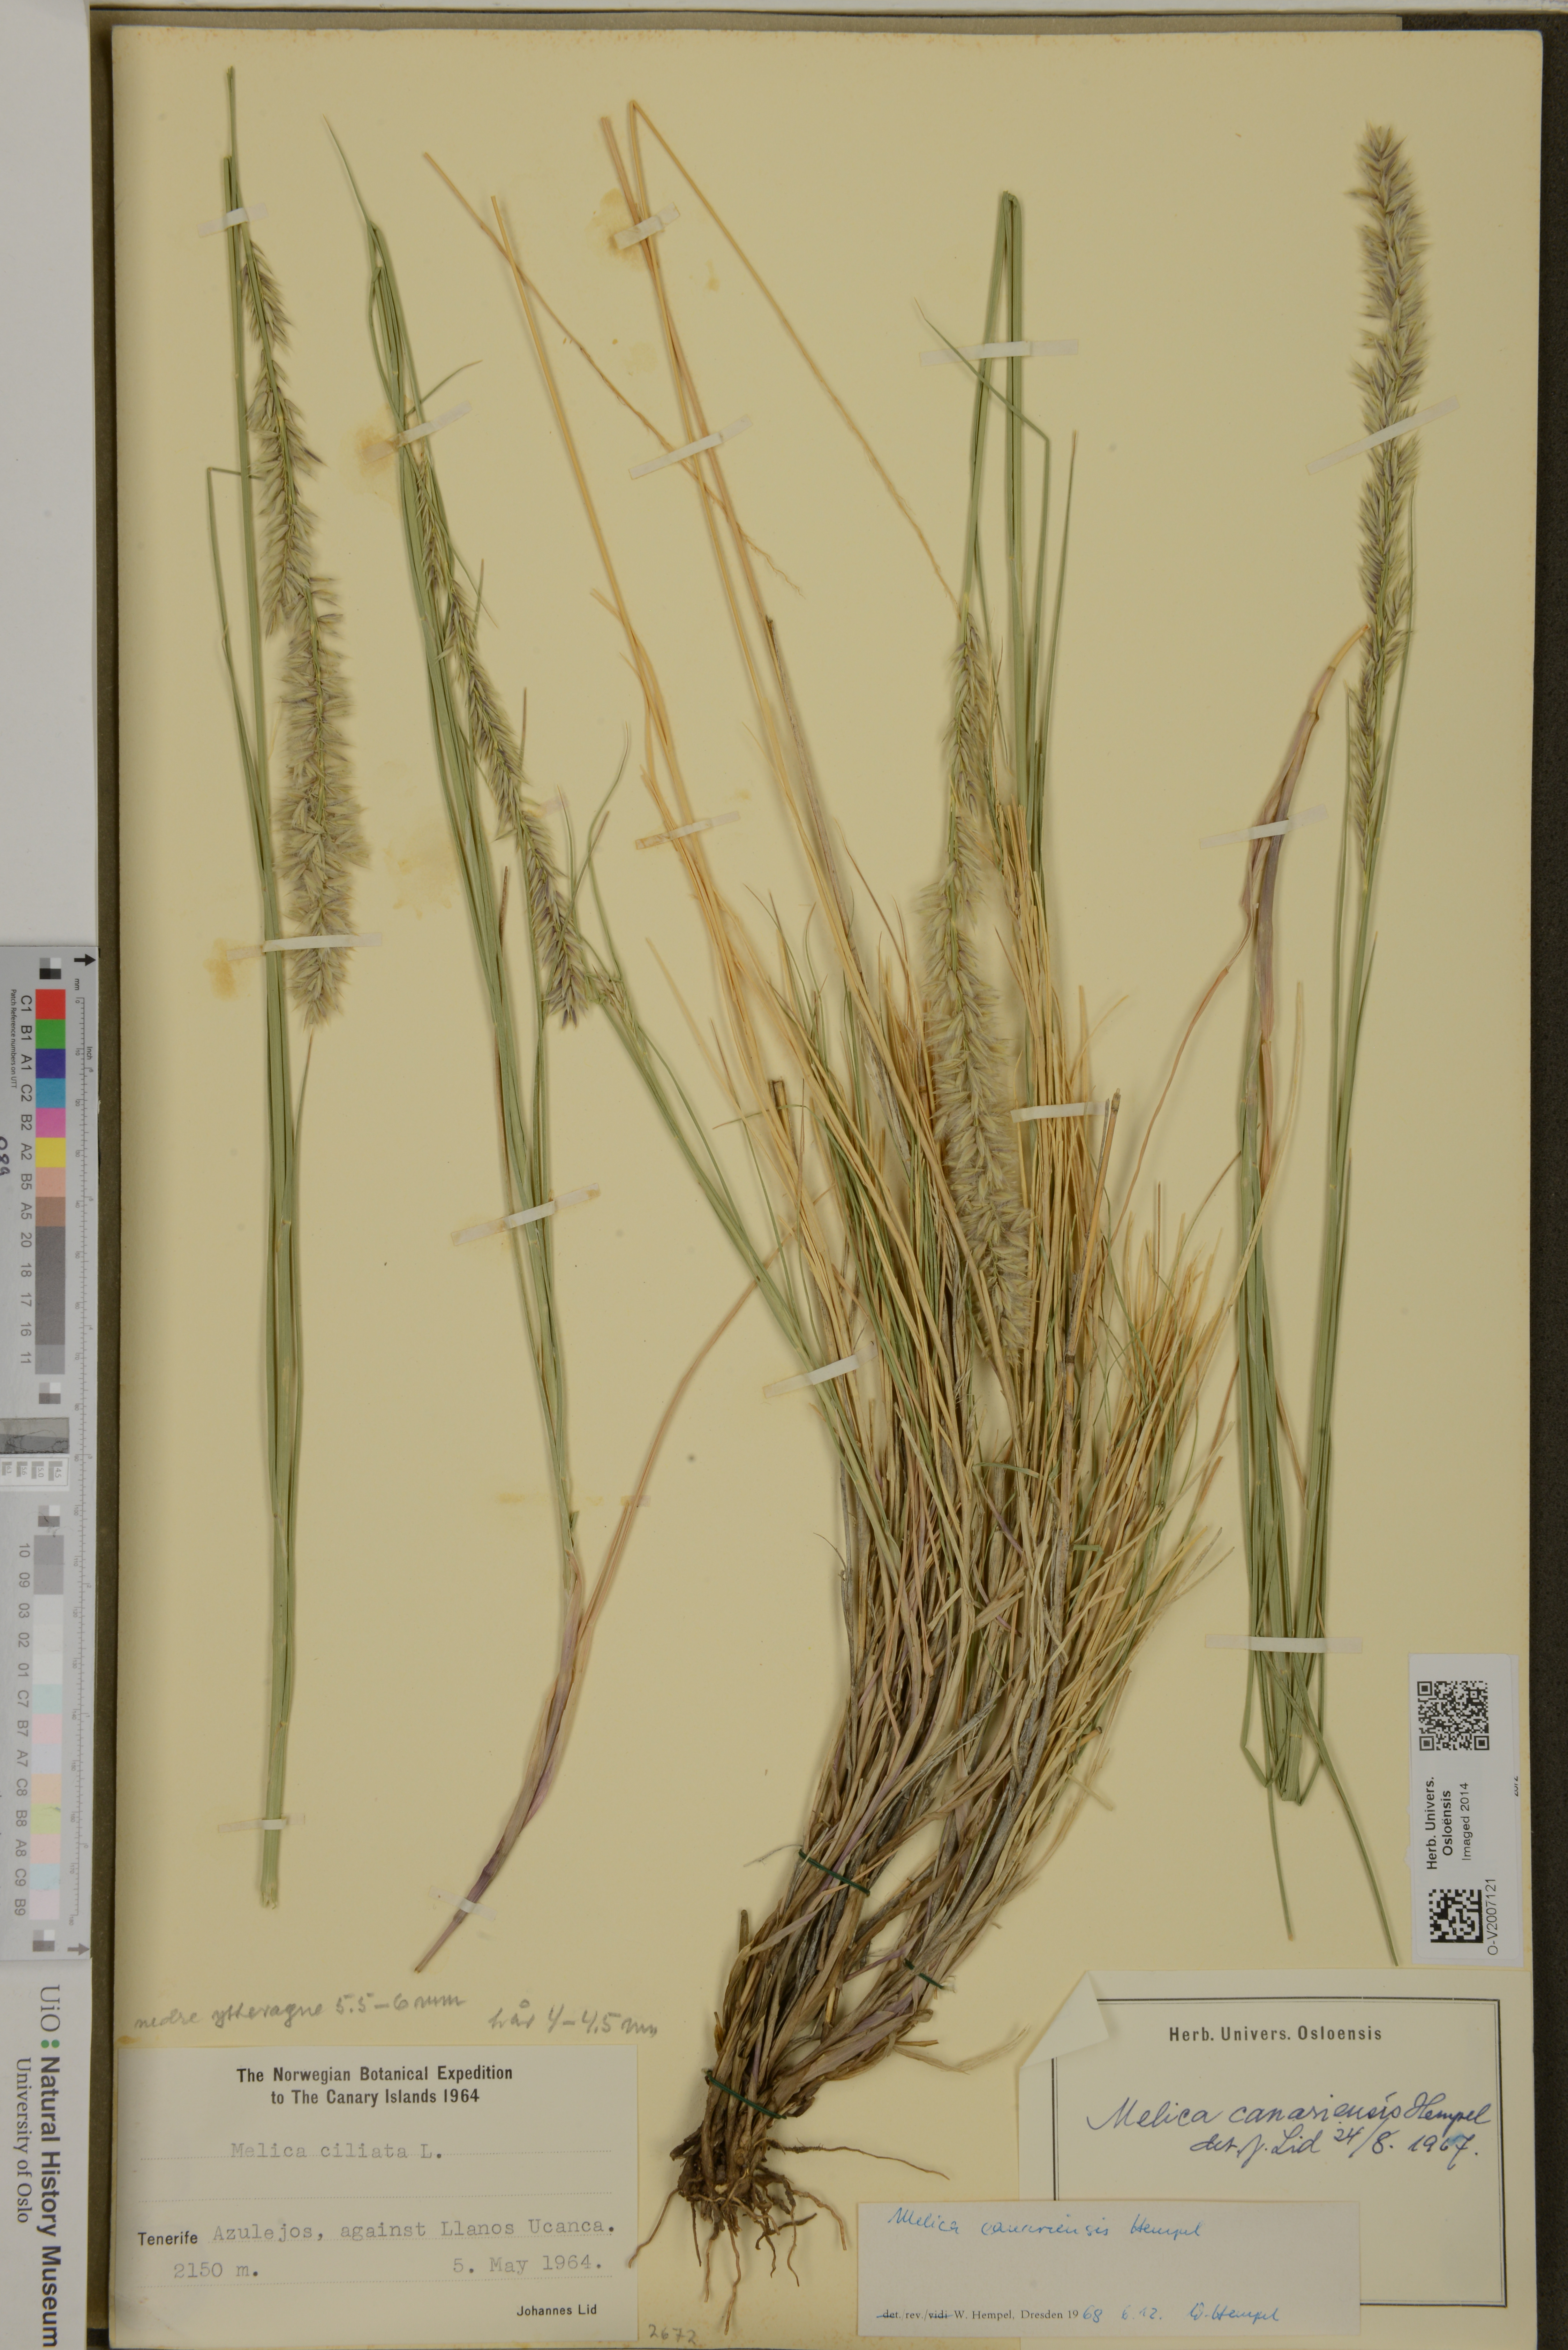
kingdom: Plantae
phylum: Tracheophyta
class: Liliopsida
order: Poales
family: Poaceae
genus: Melica
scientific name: Melica canariensis
